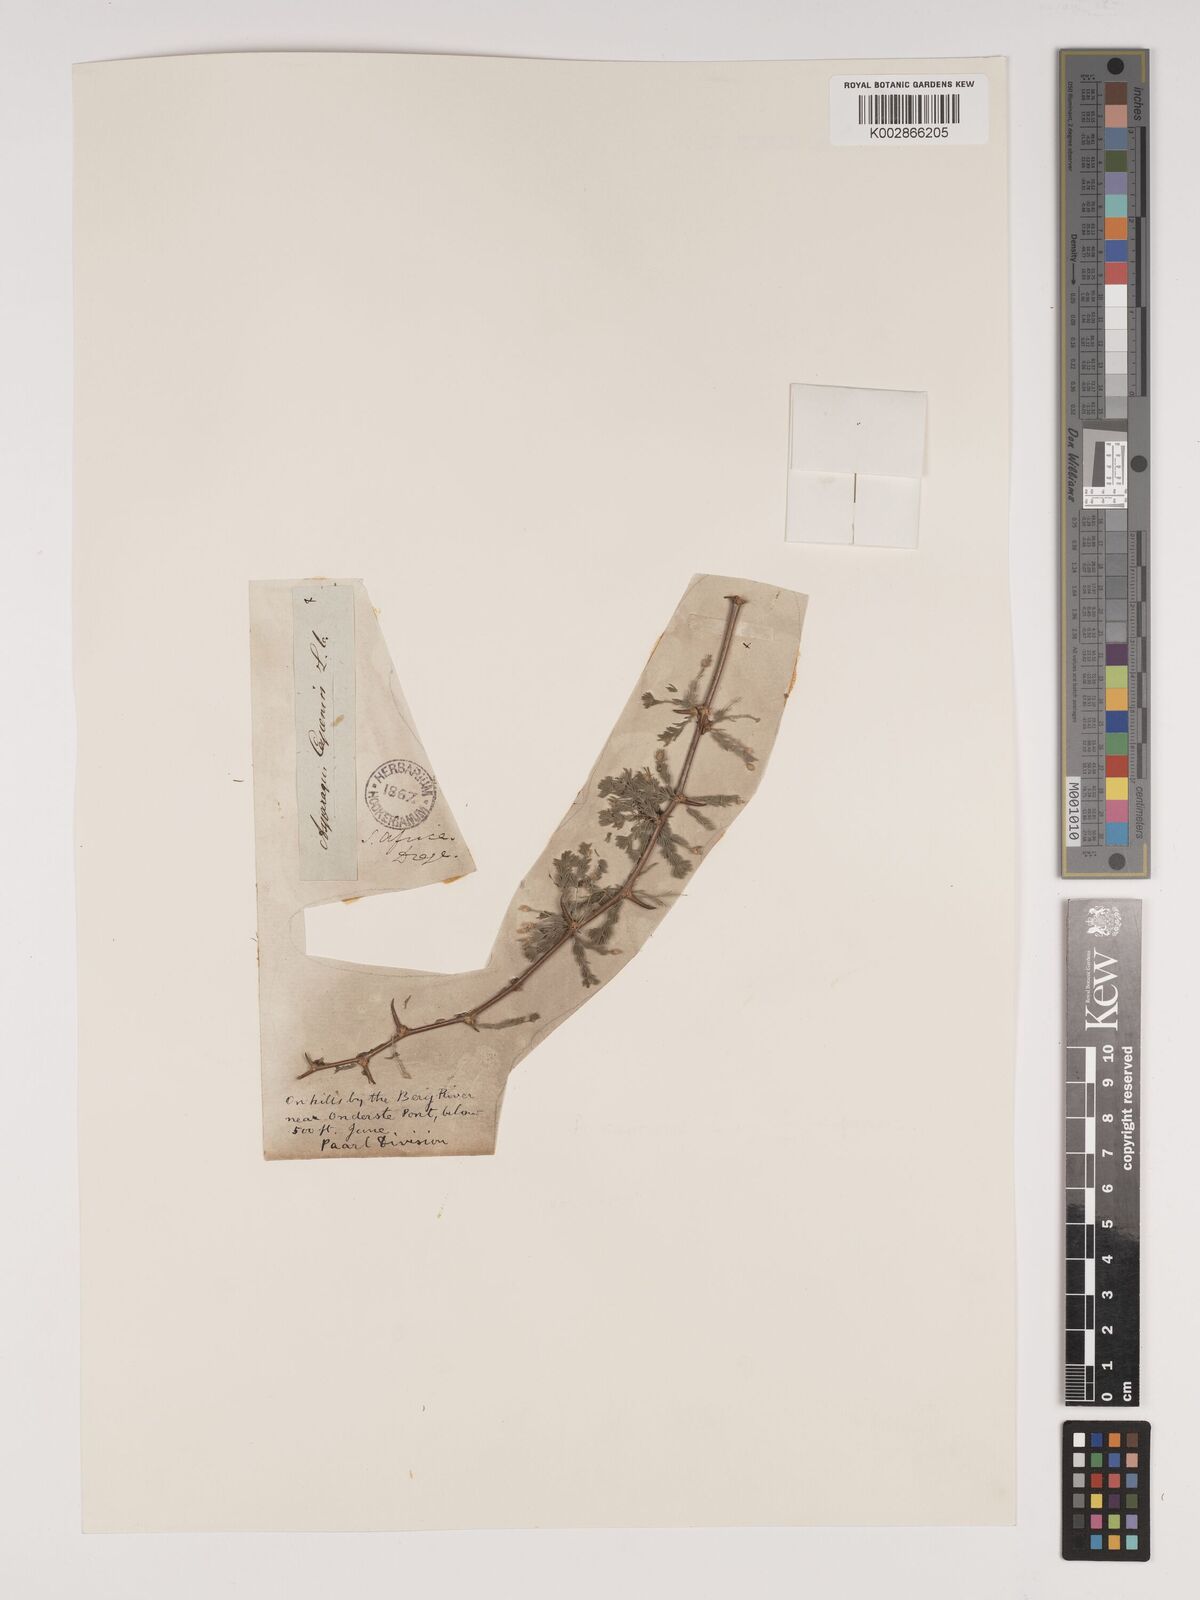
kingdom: Plantae
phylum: Tracheophyta
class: Liliopsida
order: Asparagales
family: Asparagaceae
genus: Asparagus
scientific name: Asparagus capensis
